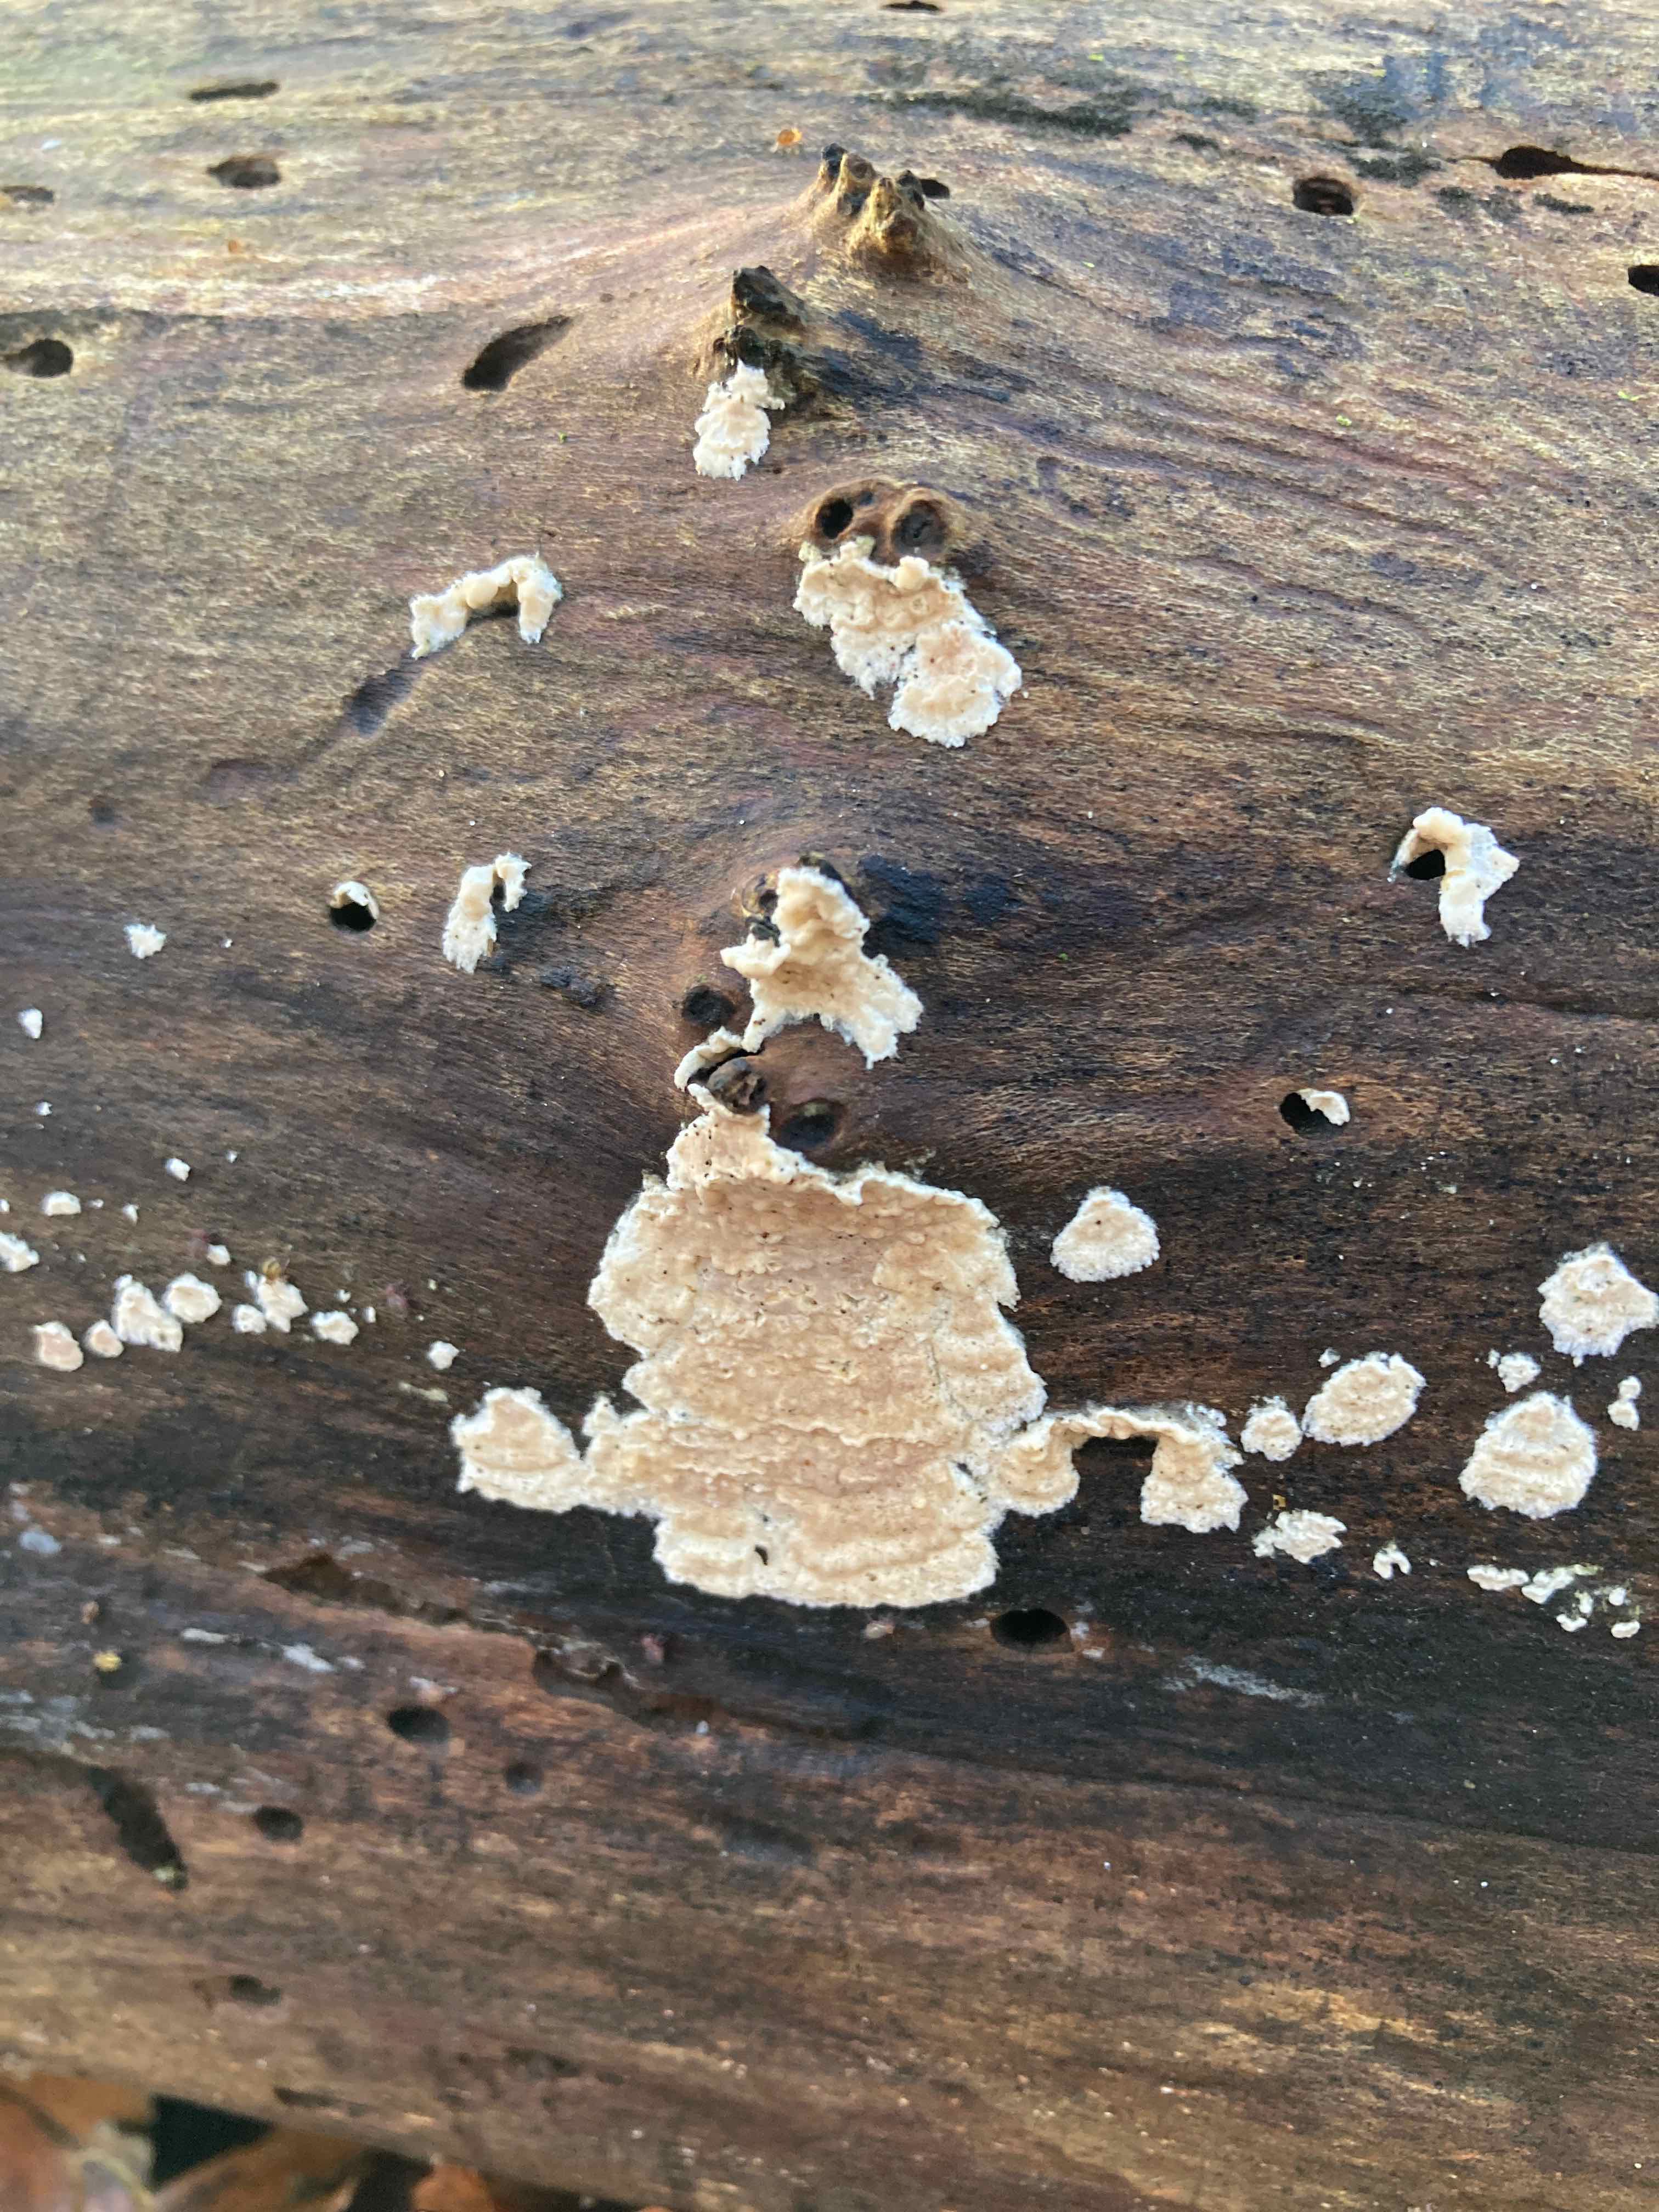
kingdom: Fungi
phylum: Basidiomycota
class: Agaricomycetes
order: Agaricales
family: Physalacriaceae
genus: Cylindrobasidium
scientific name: Cylindrobasidium evolvens
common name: sprækkehinde
